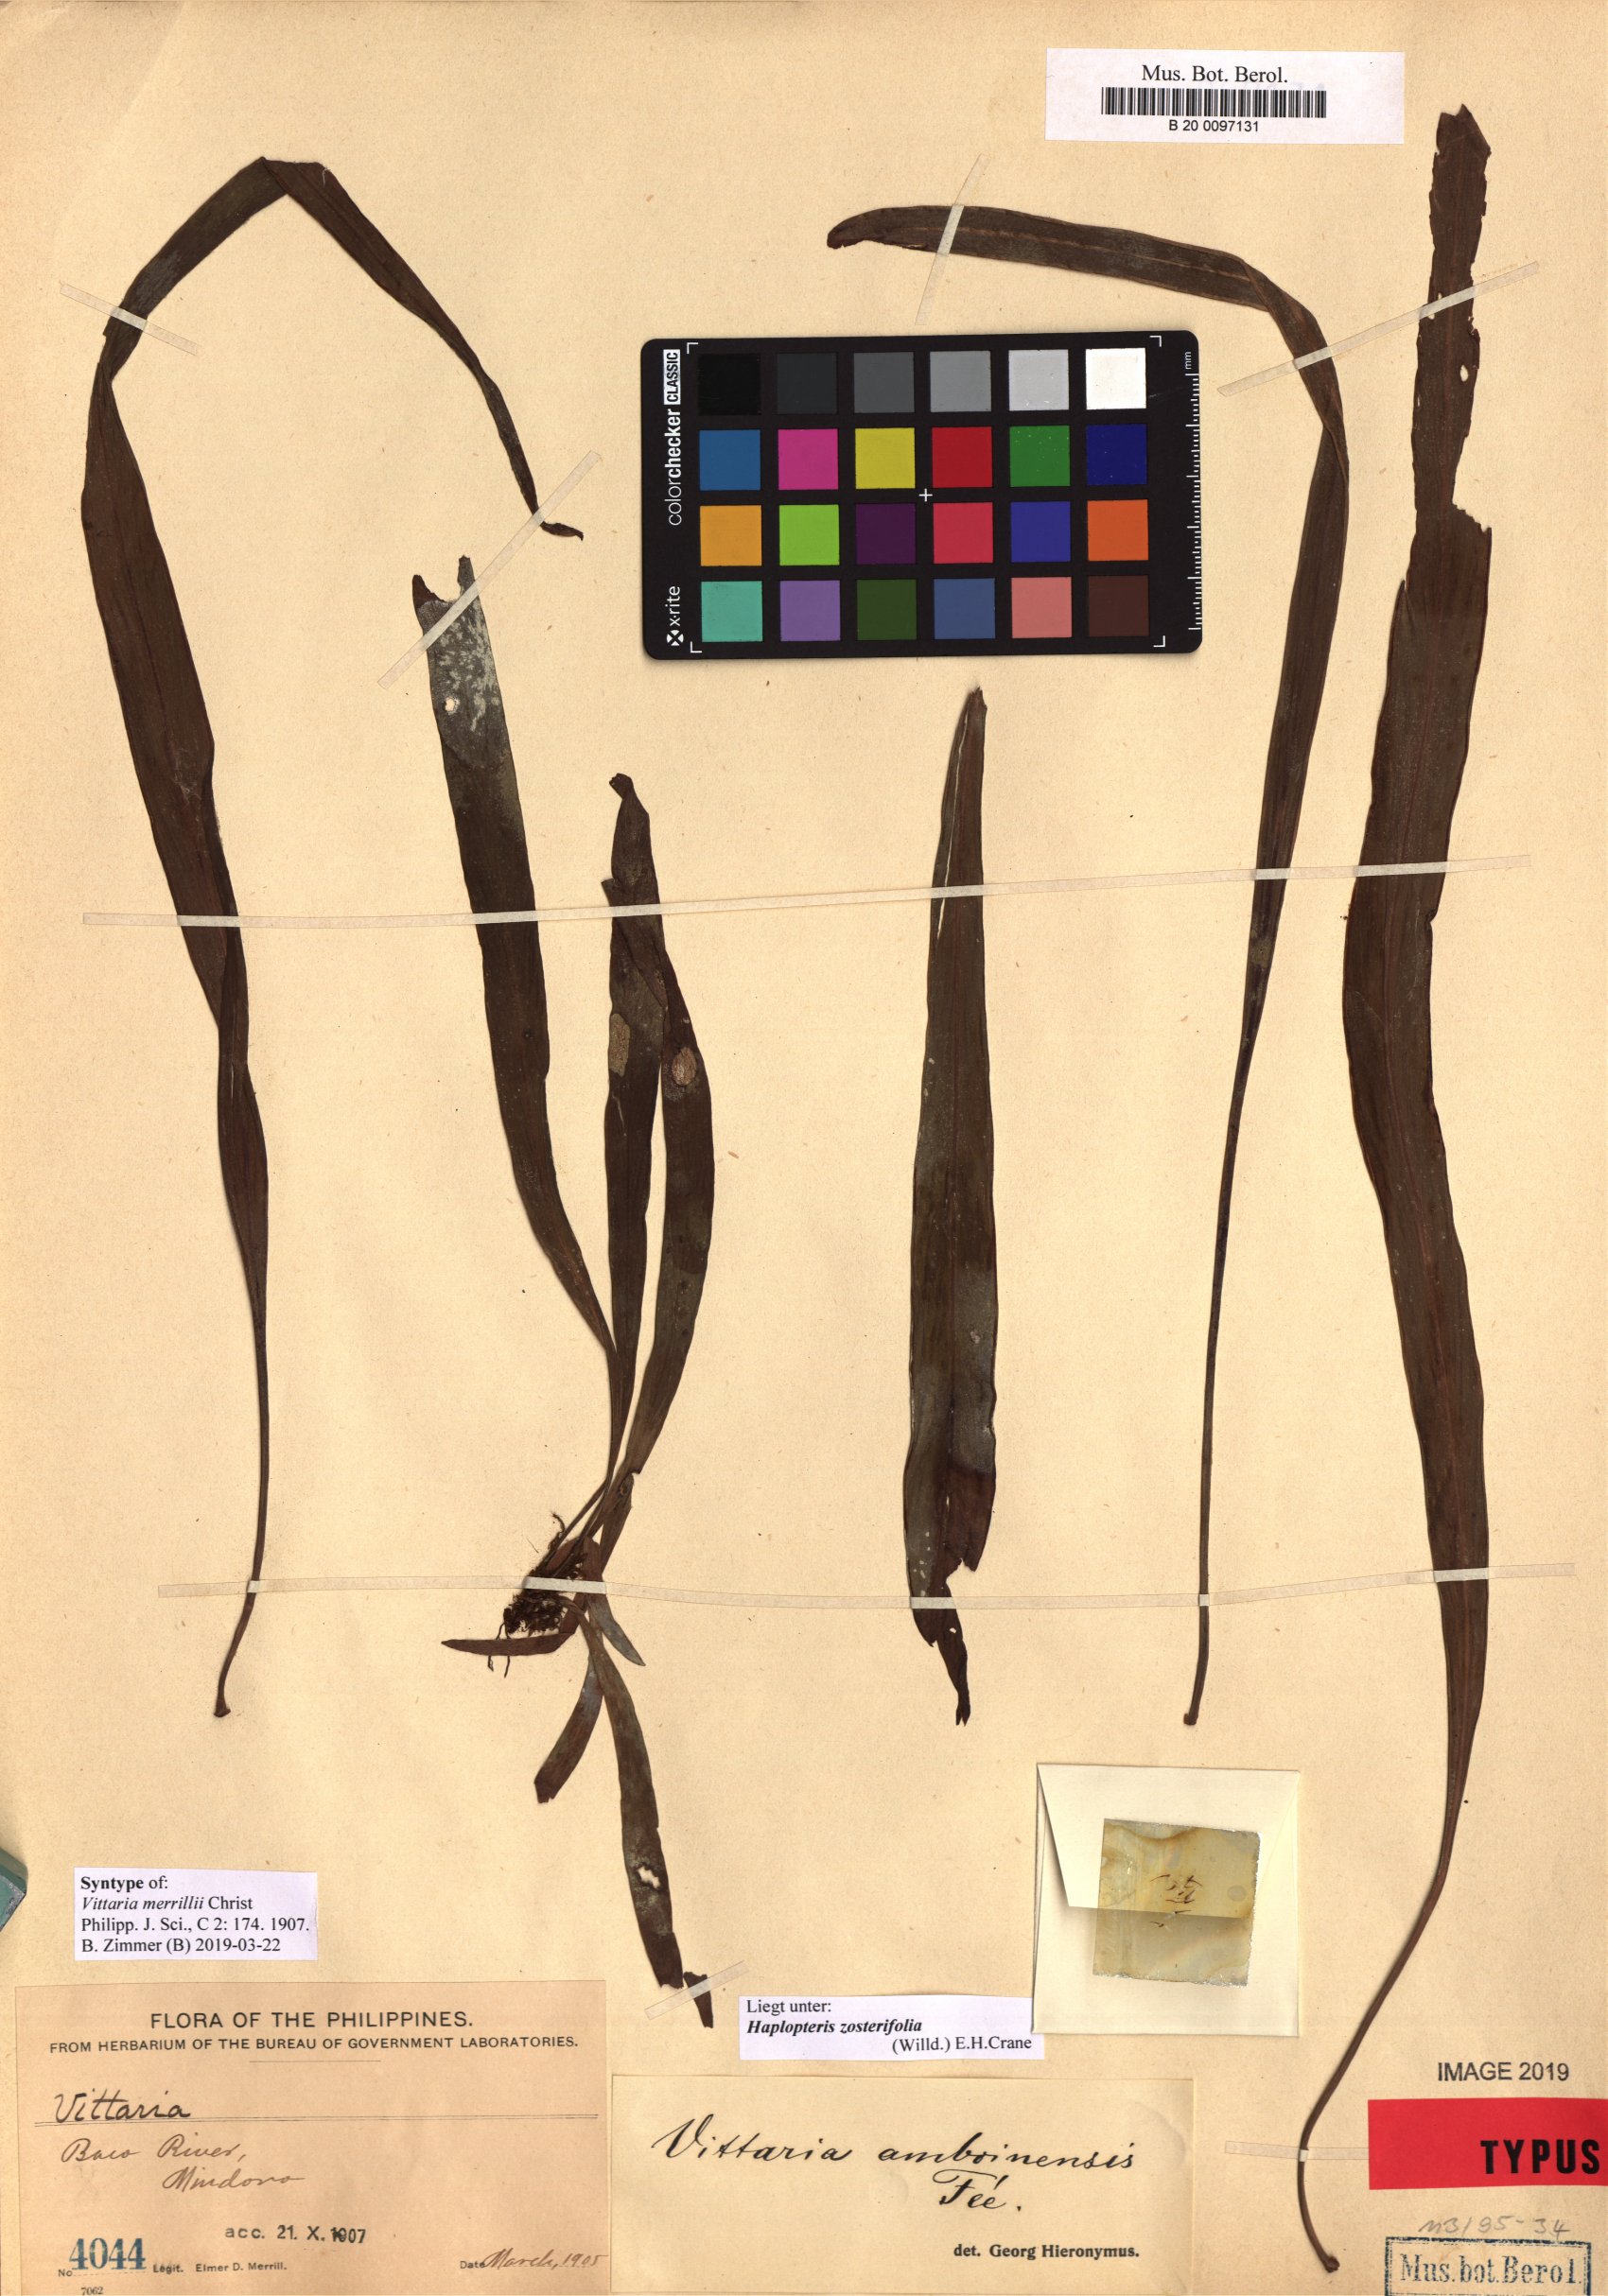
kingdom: Plantae
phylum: Tracheophyta
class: Polypodiopsida
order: Polypodiales
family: Pteridaceae
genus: Haplopteris
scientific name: Haplopteris zosterifolia
